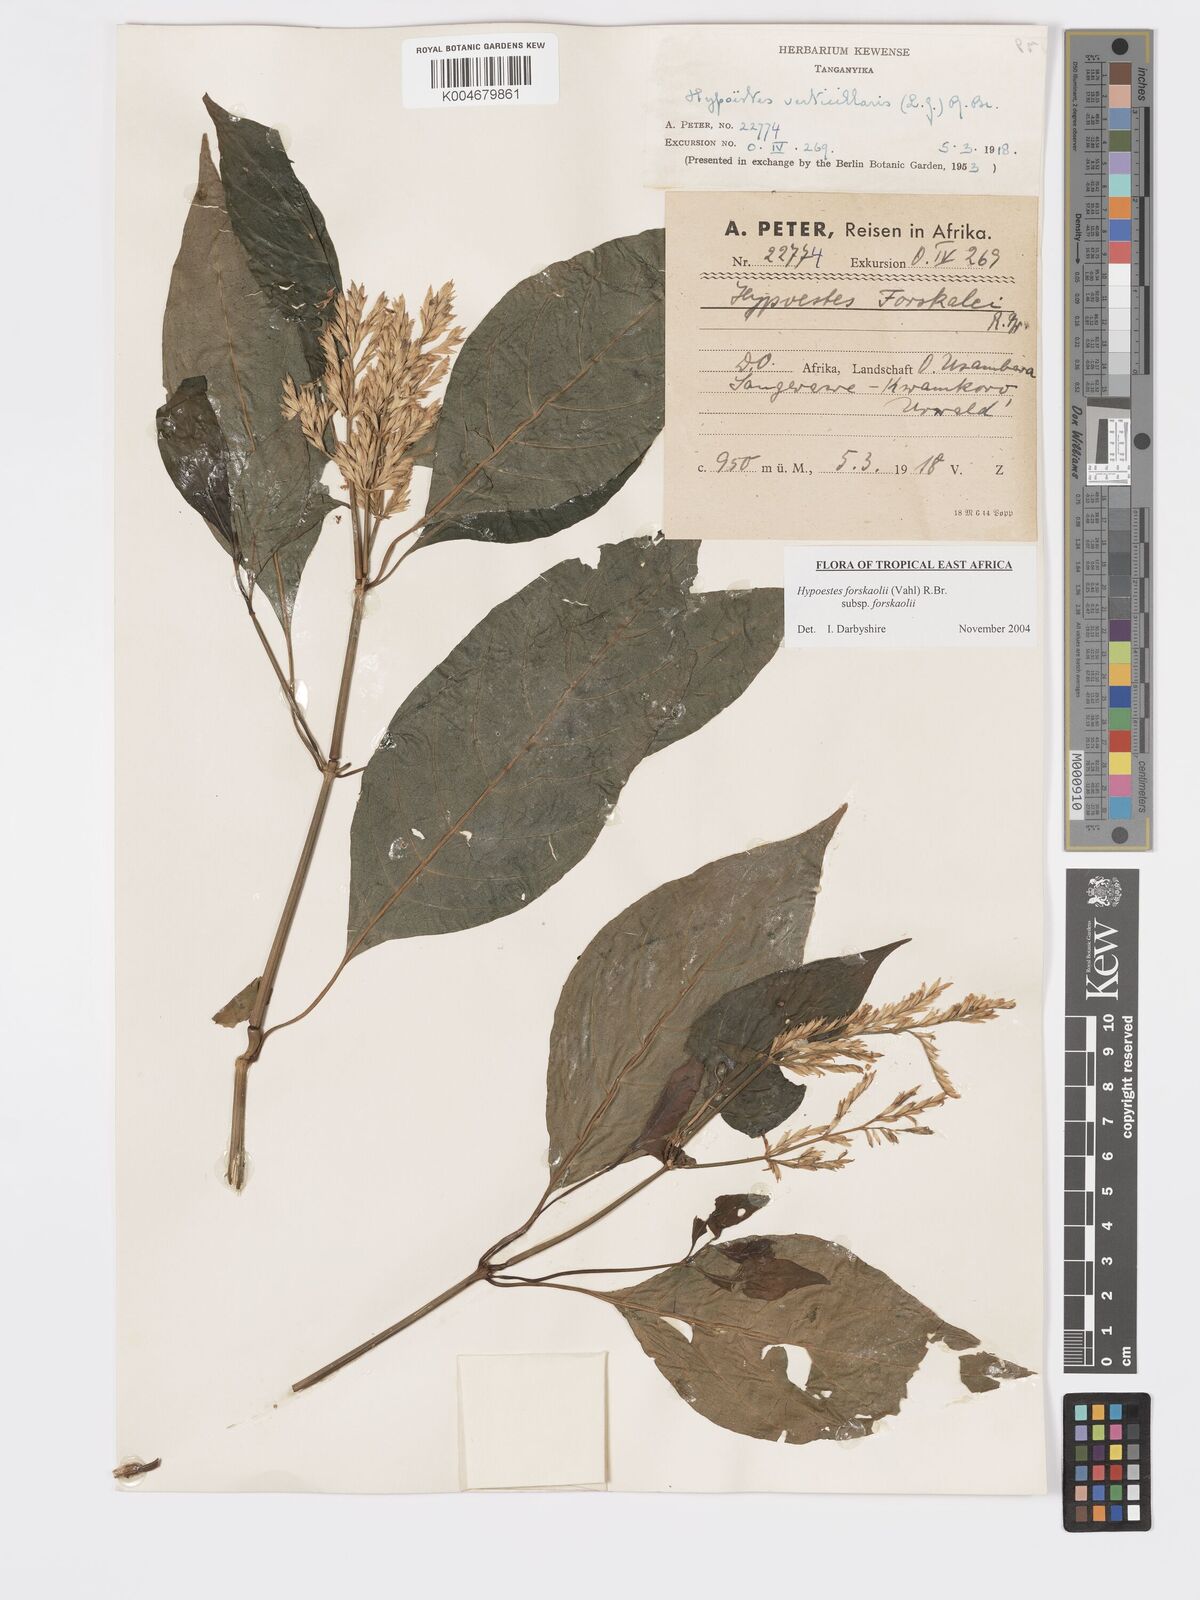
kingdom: Plantae
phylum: Tracheophyta
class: Magnoliopsida
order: Lamiales
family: Acanthaceae
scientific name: Acanthaceae
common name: Acanthaceae
